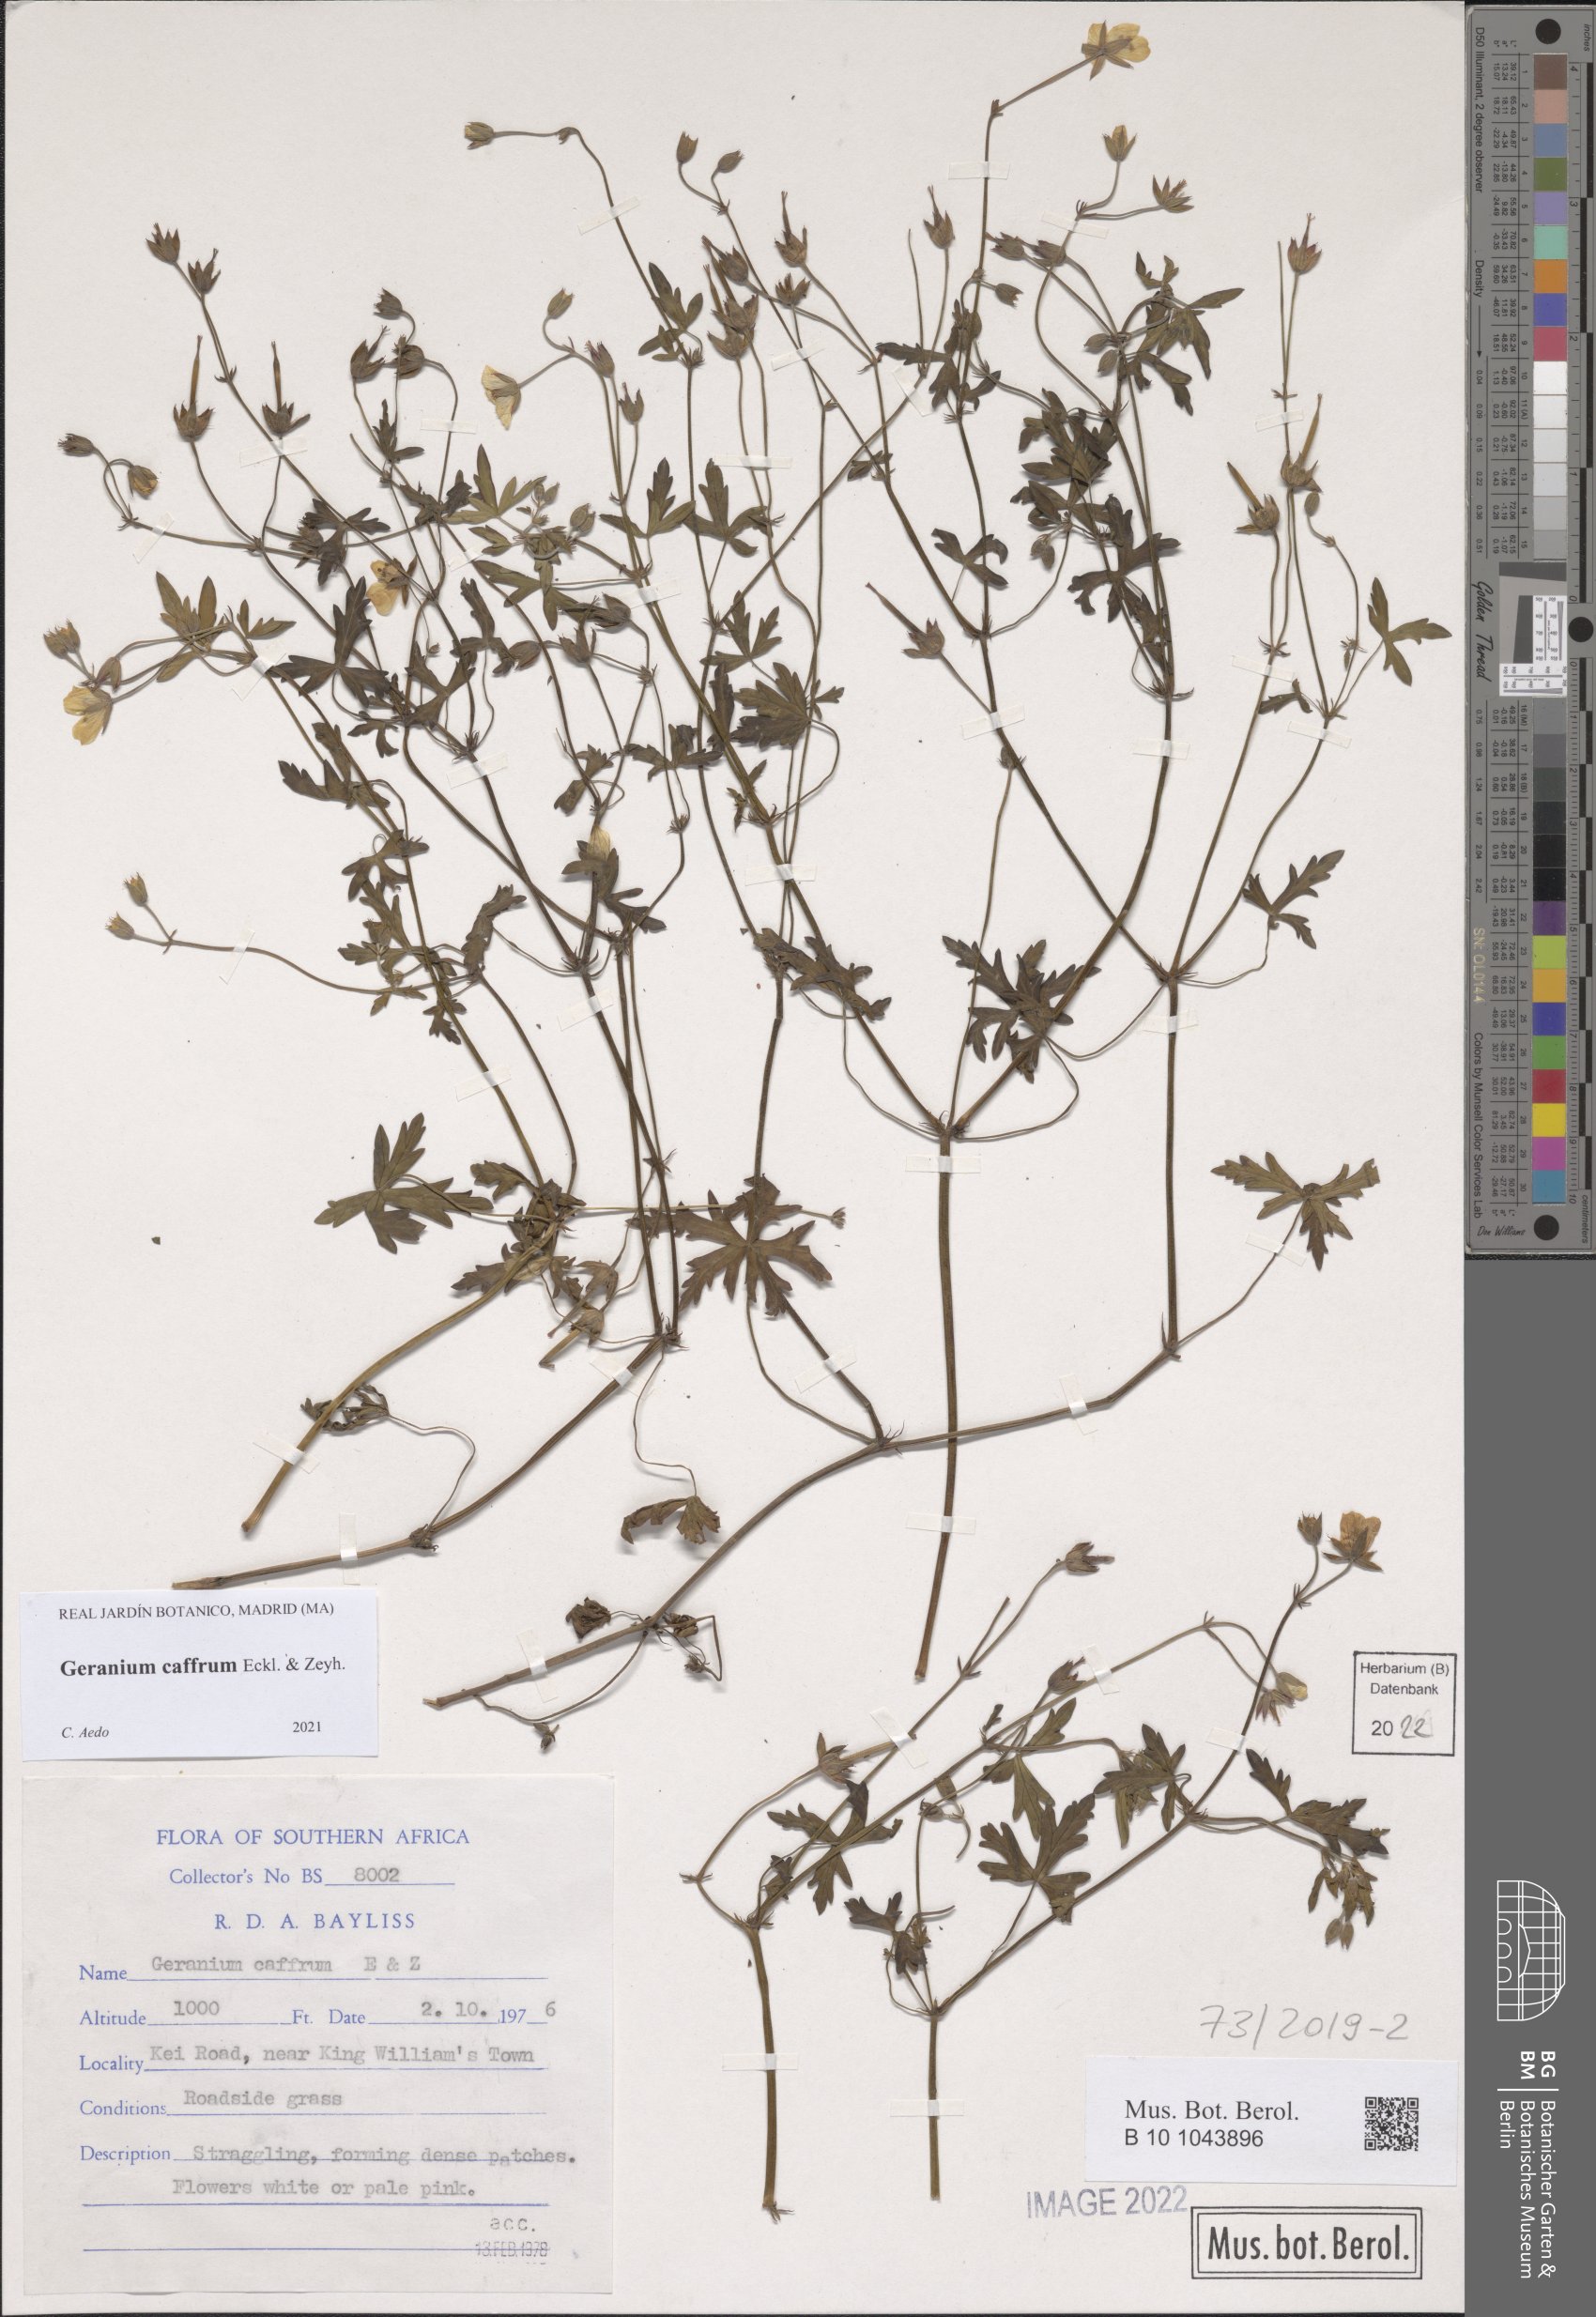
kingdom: Plantae
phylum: Tracheophyta
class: Magnoliopsida
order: Geraniales
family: Geraniaceae
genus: Geranium
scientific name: Geranium caffrum
